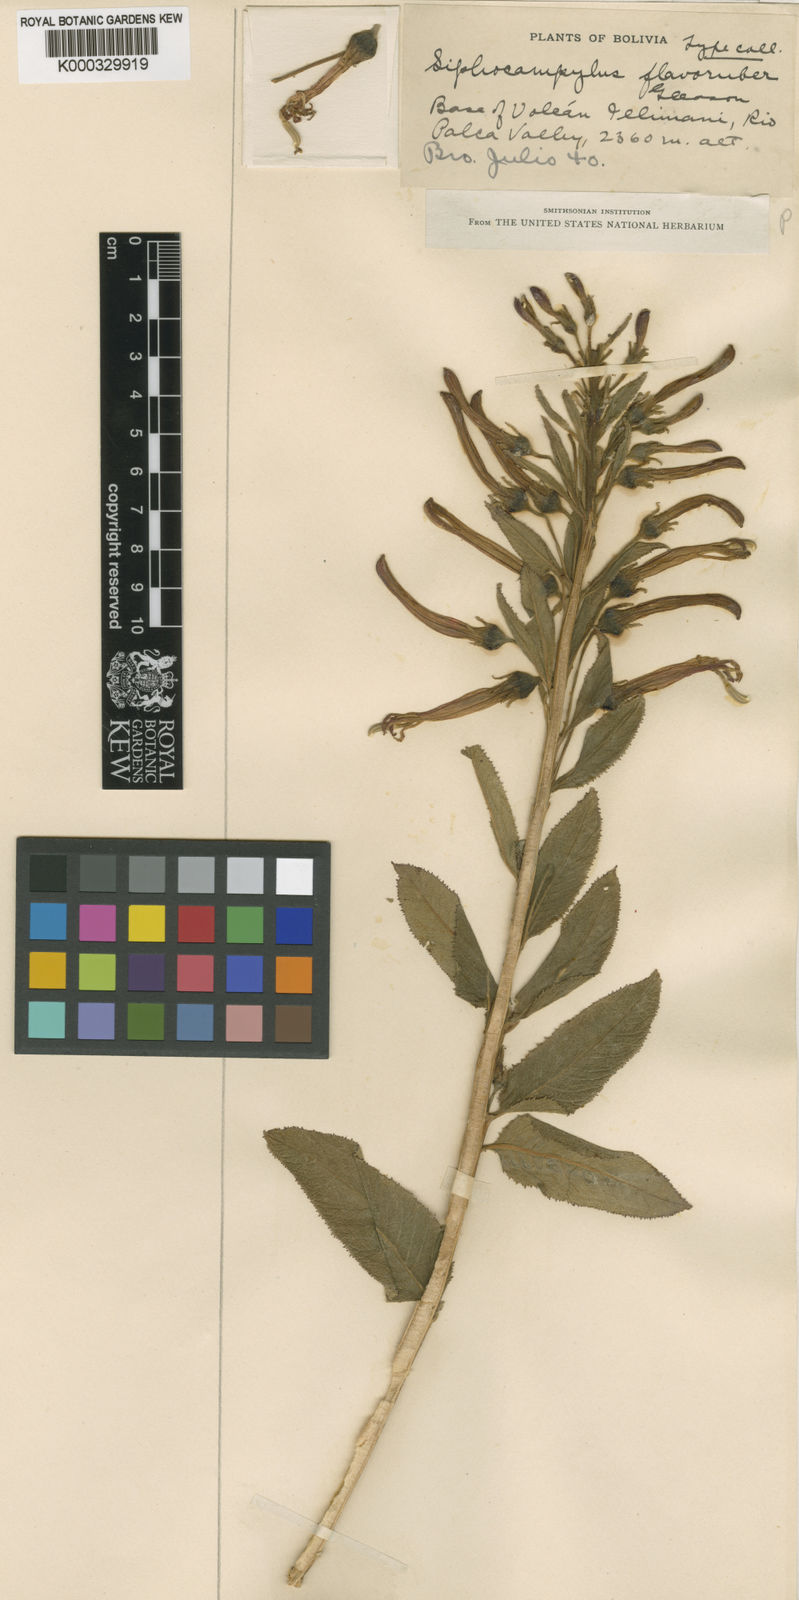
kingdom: Plantae
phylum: Tracheophyta
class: Magnoliopsida
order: Asterales
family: Campanulaceae
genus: Siphocampylus
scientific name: Siphocampylus tupaeformis
